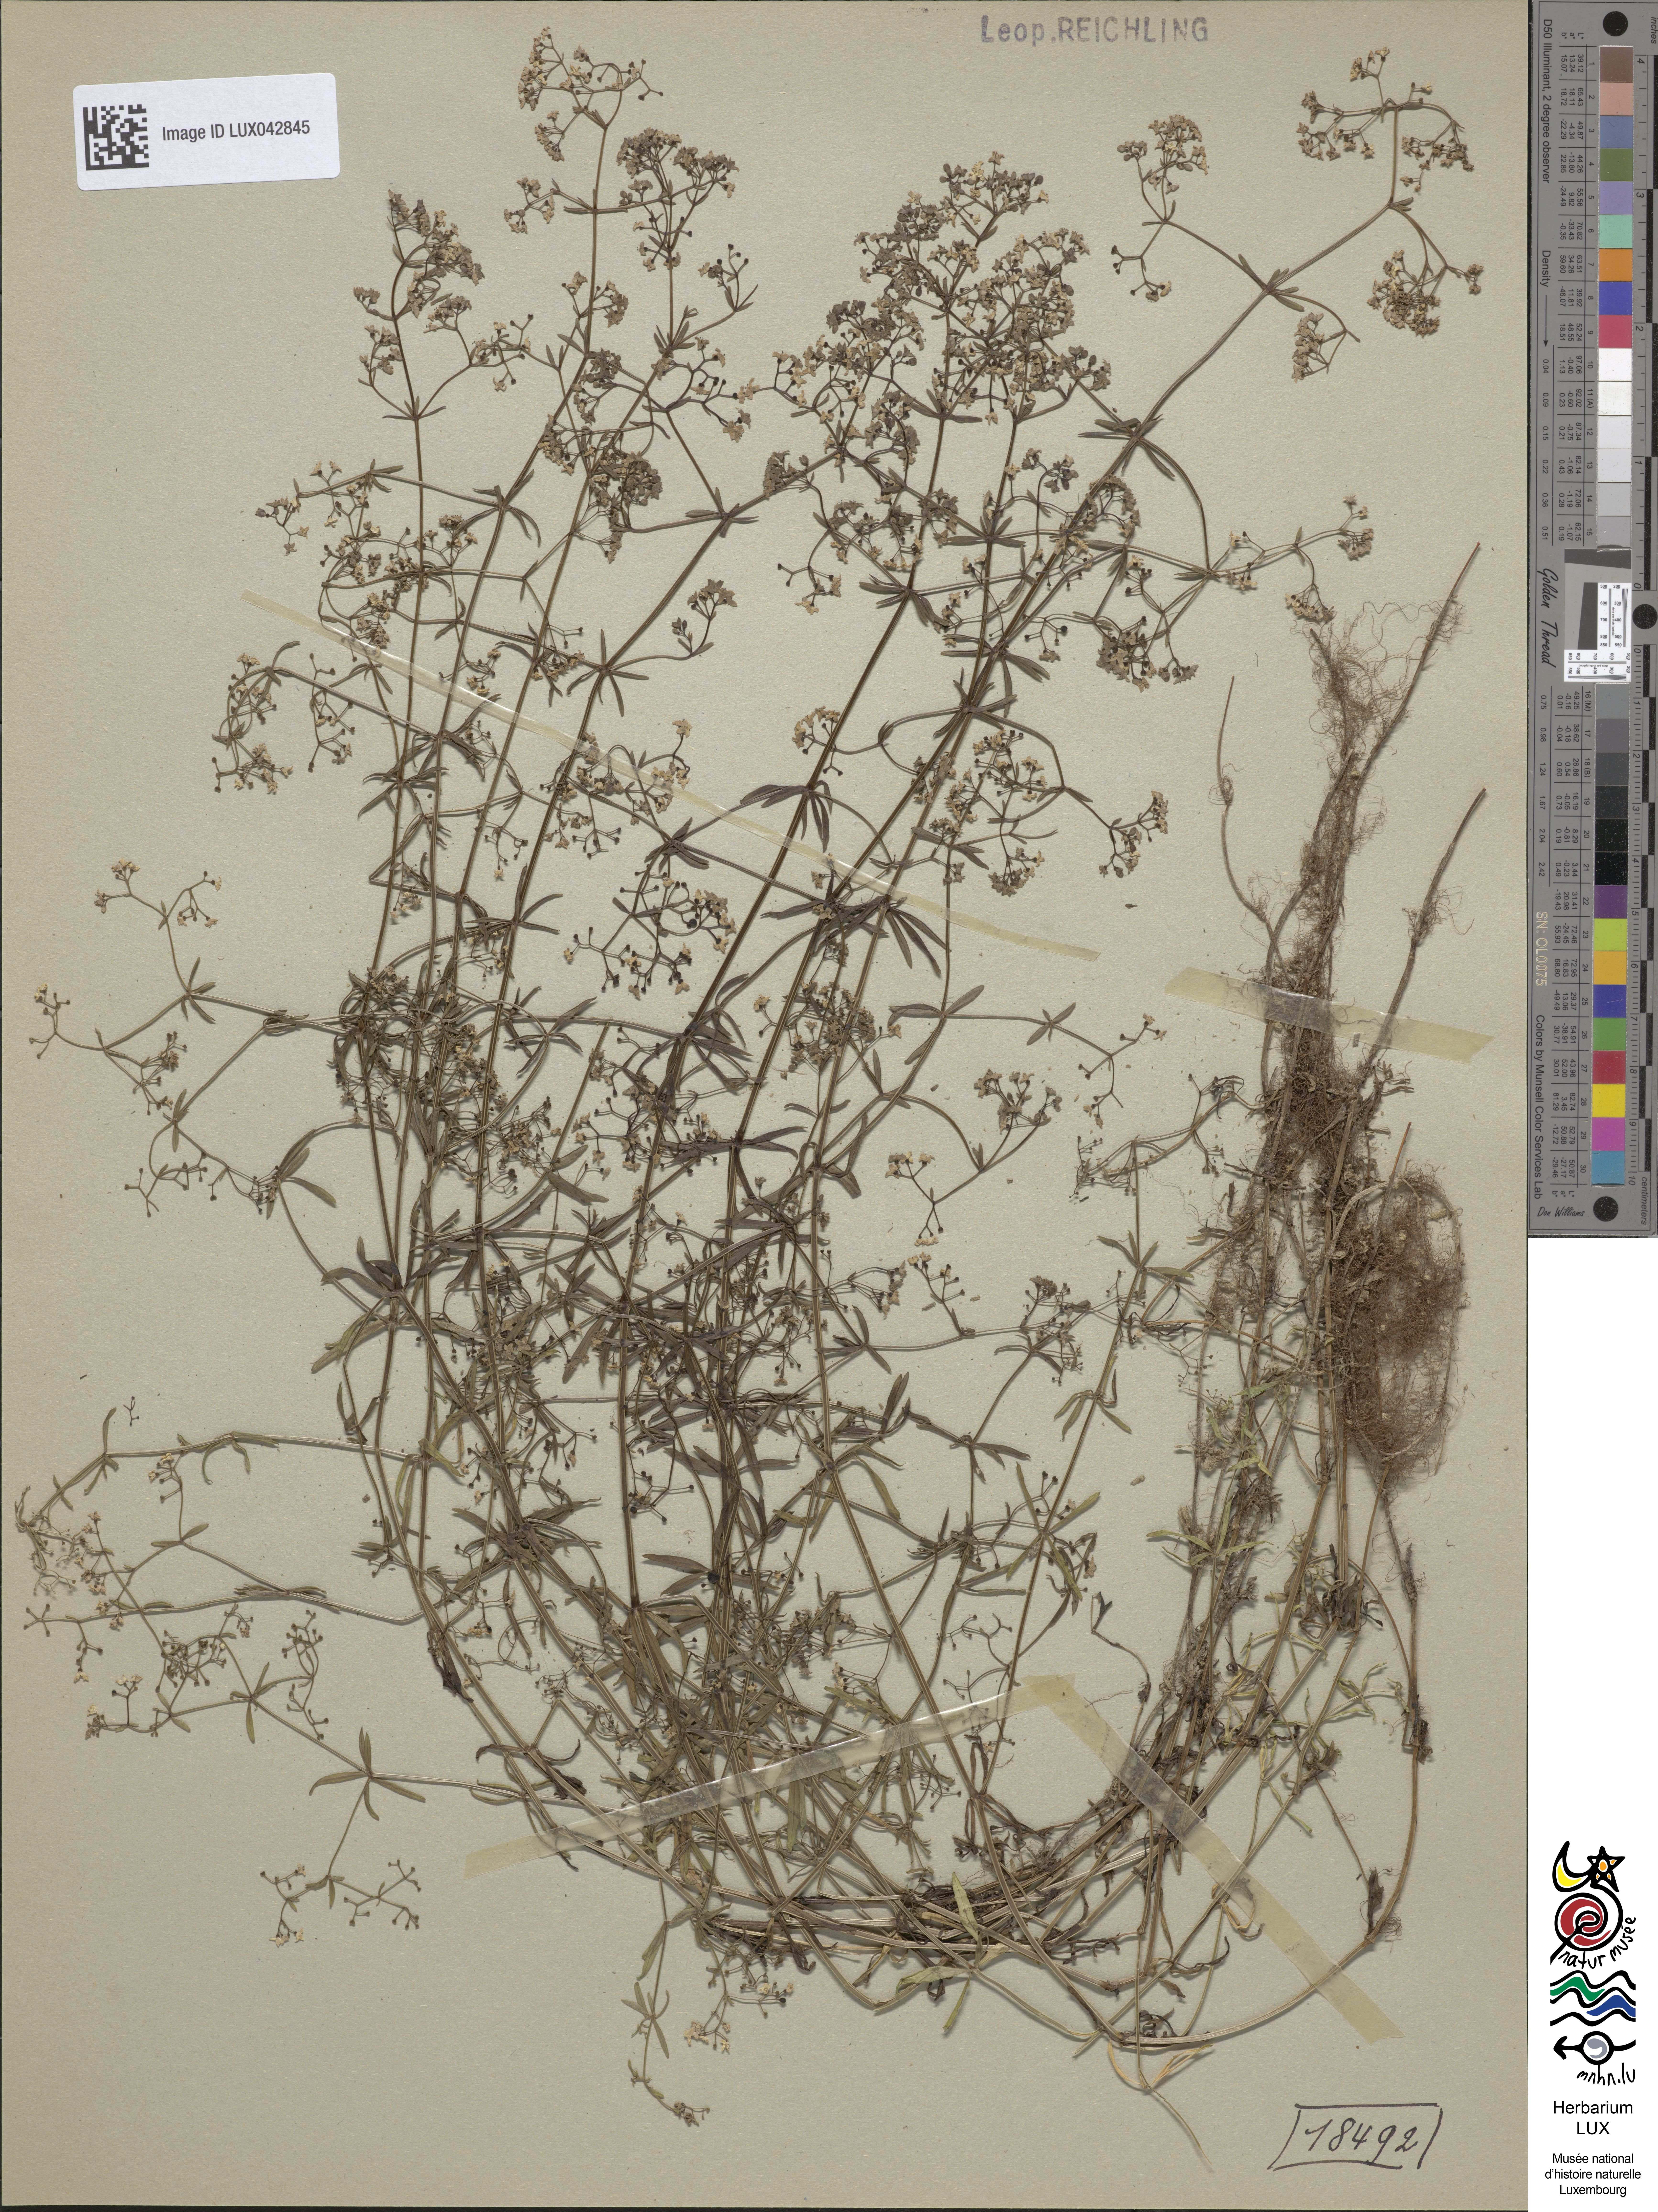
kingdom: Plantae
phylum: Tracheophyta
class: Magnoliopsida
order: Gentianales
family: Rubiaceae
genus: Galium
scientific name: Galium palustre
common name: Common marsh-bedstraw
